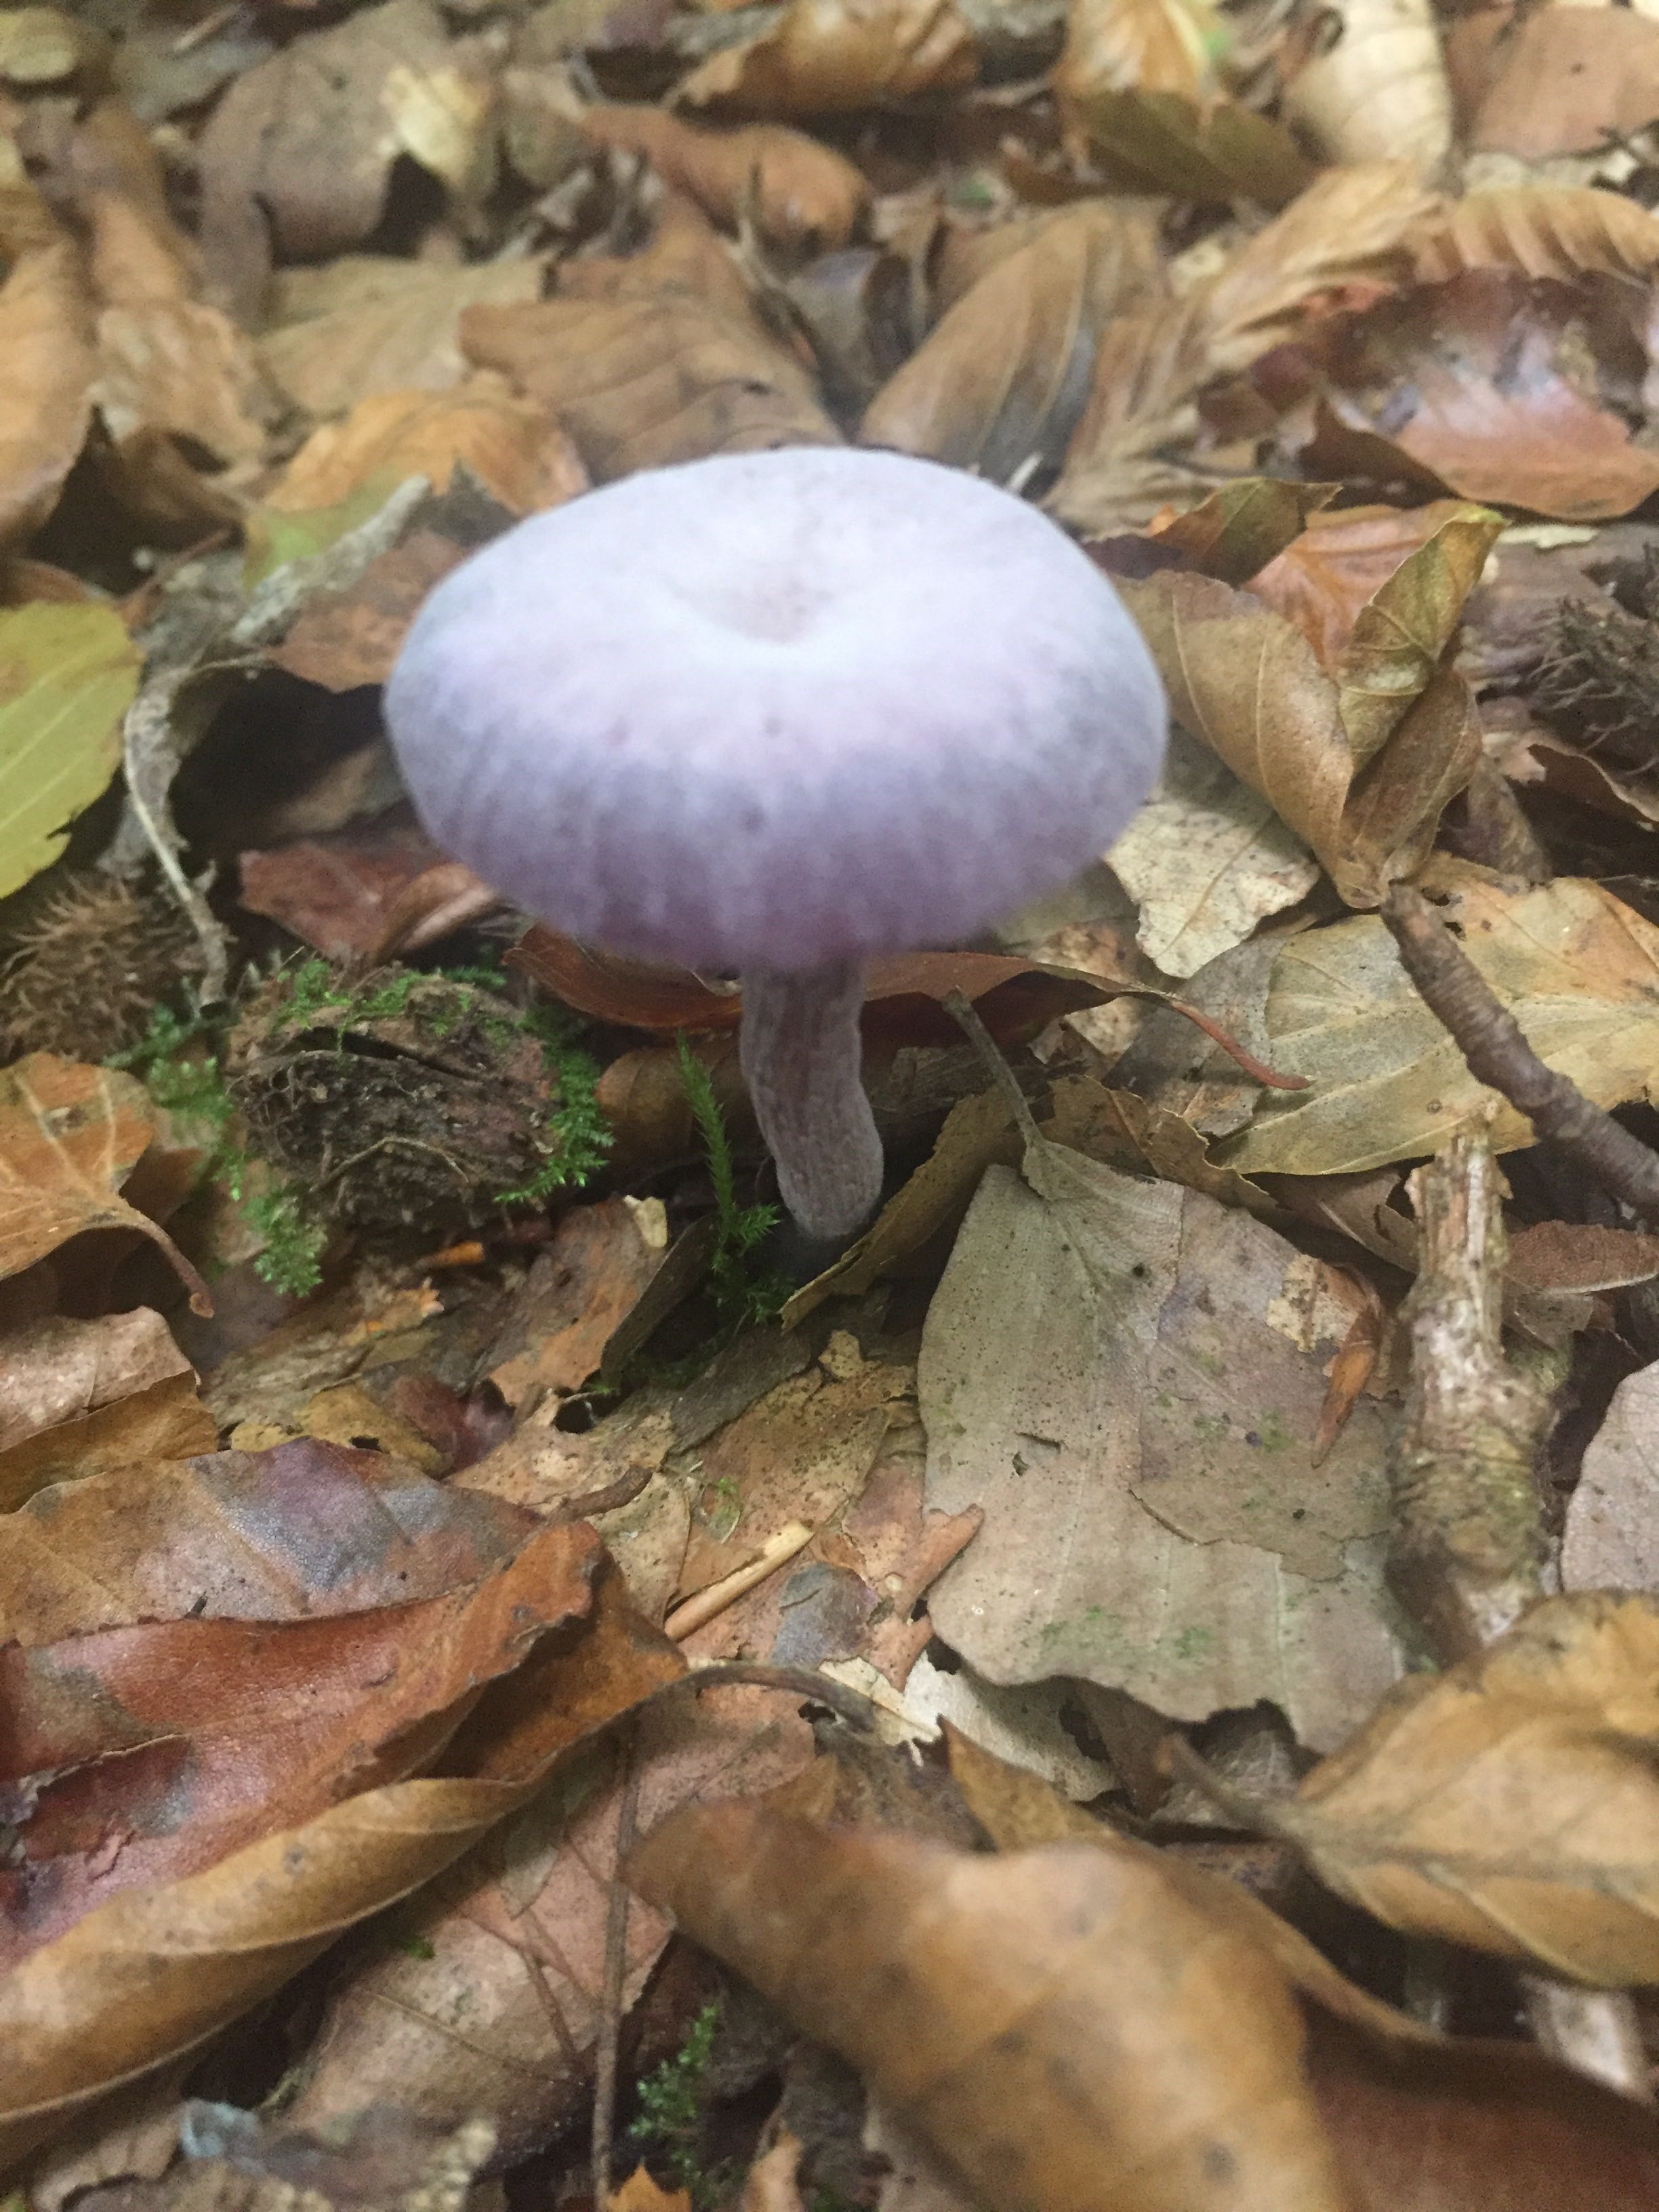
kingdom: Fungi
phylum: Basidiomycota
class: Agaricomycetes
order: Agaricales
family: Hydnangiaceae
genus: Laccaria
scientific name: Laccaria amethystina
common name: violet ametysthat
